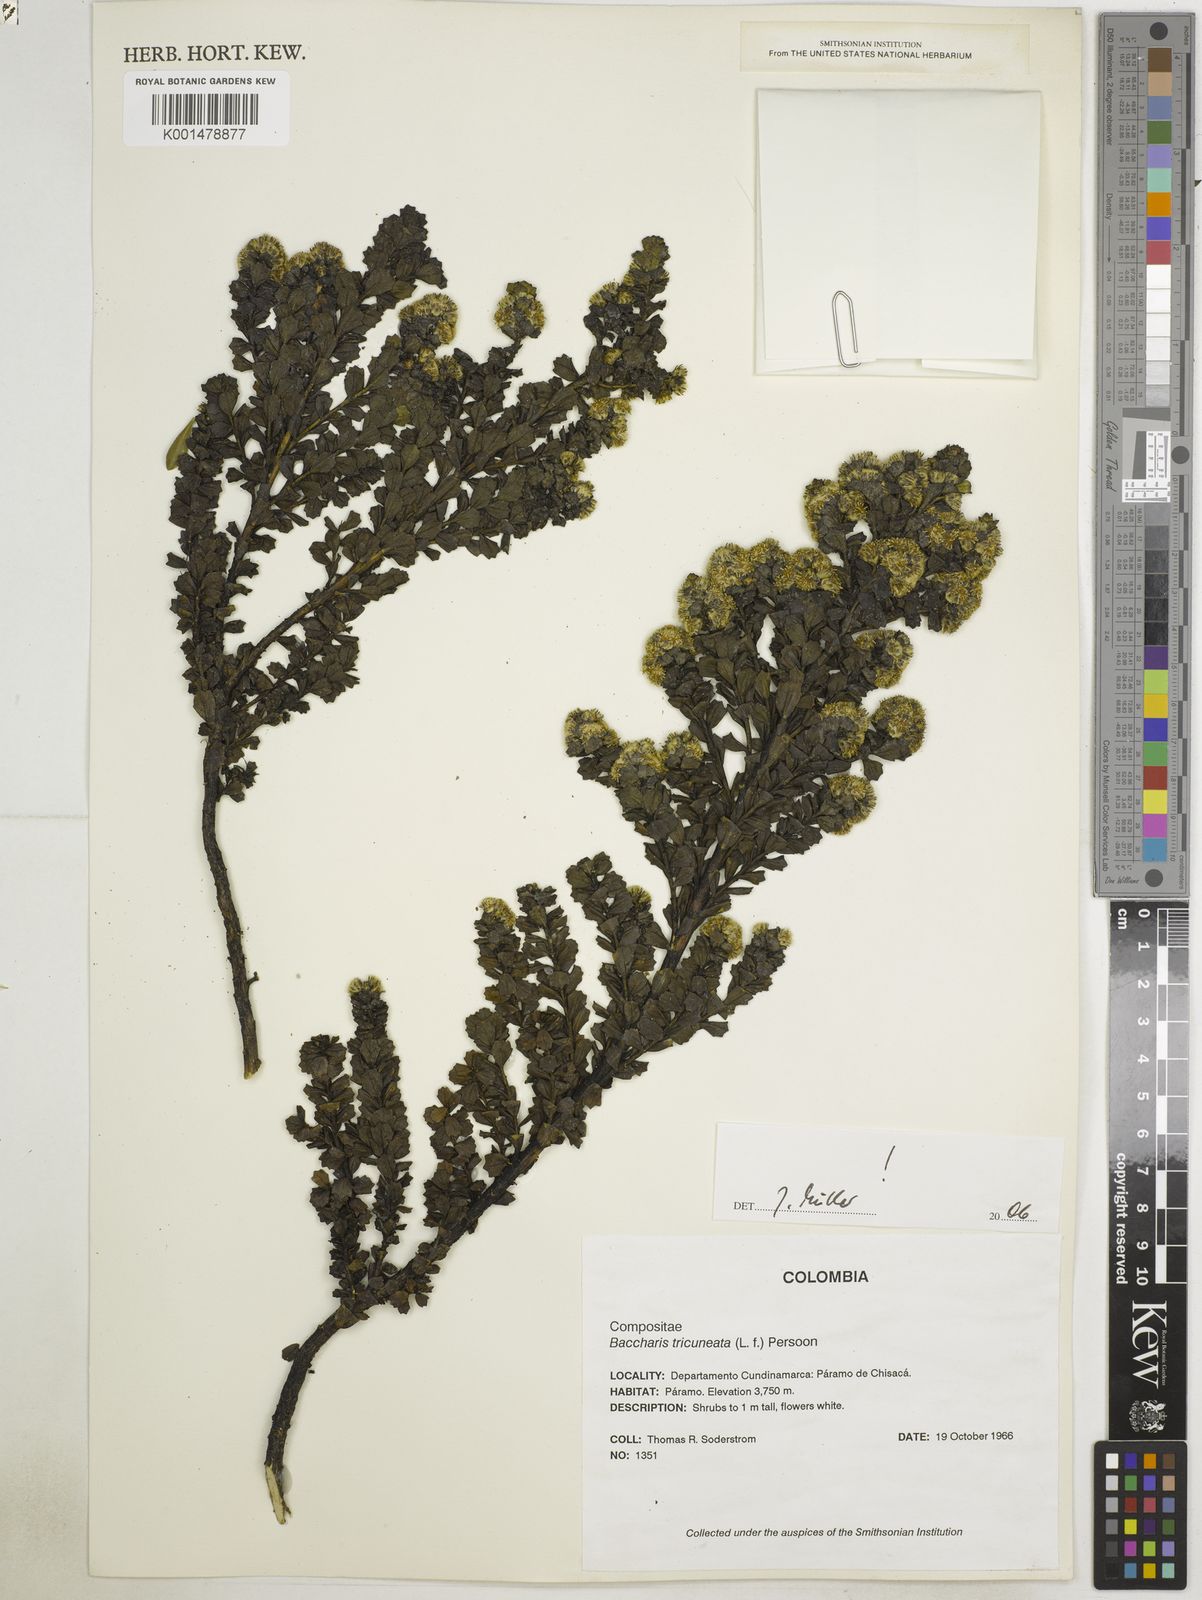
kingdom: Plantae
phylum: Tracheophyta
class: Magnoliopsida
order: Asterales
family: Asteraceae
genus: Baccharis
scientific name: Baccharis tricuneata
